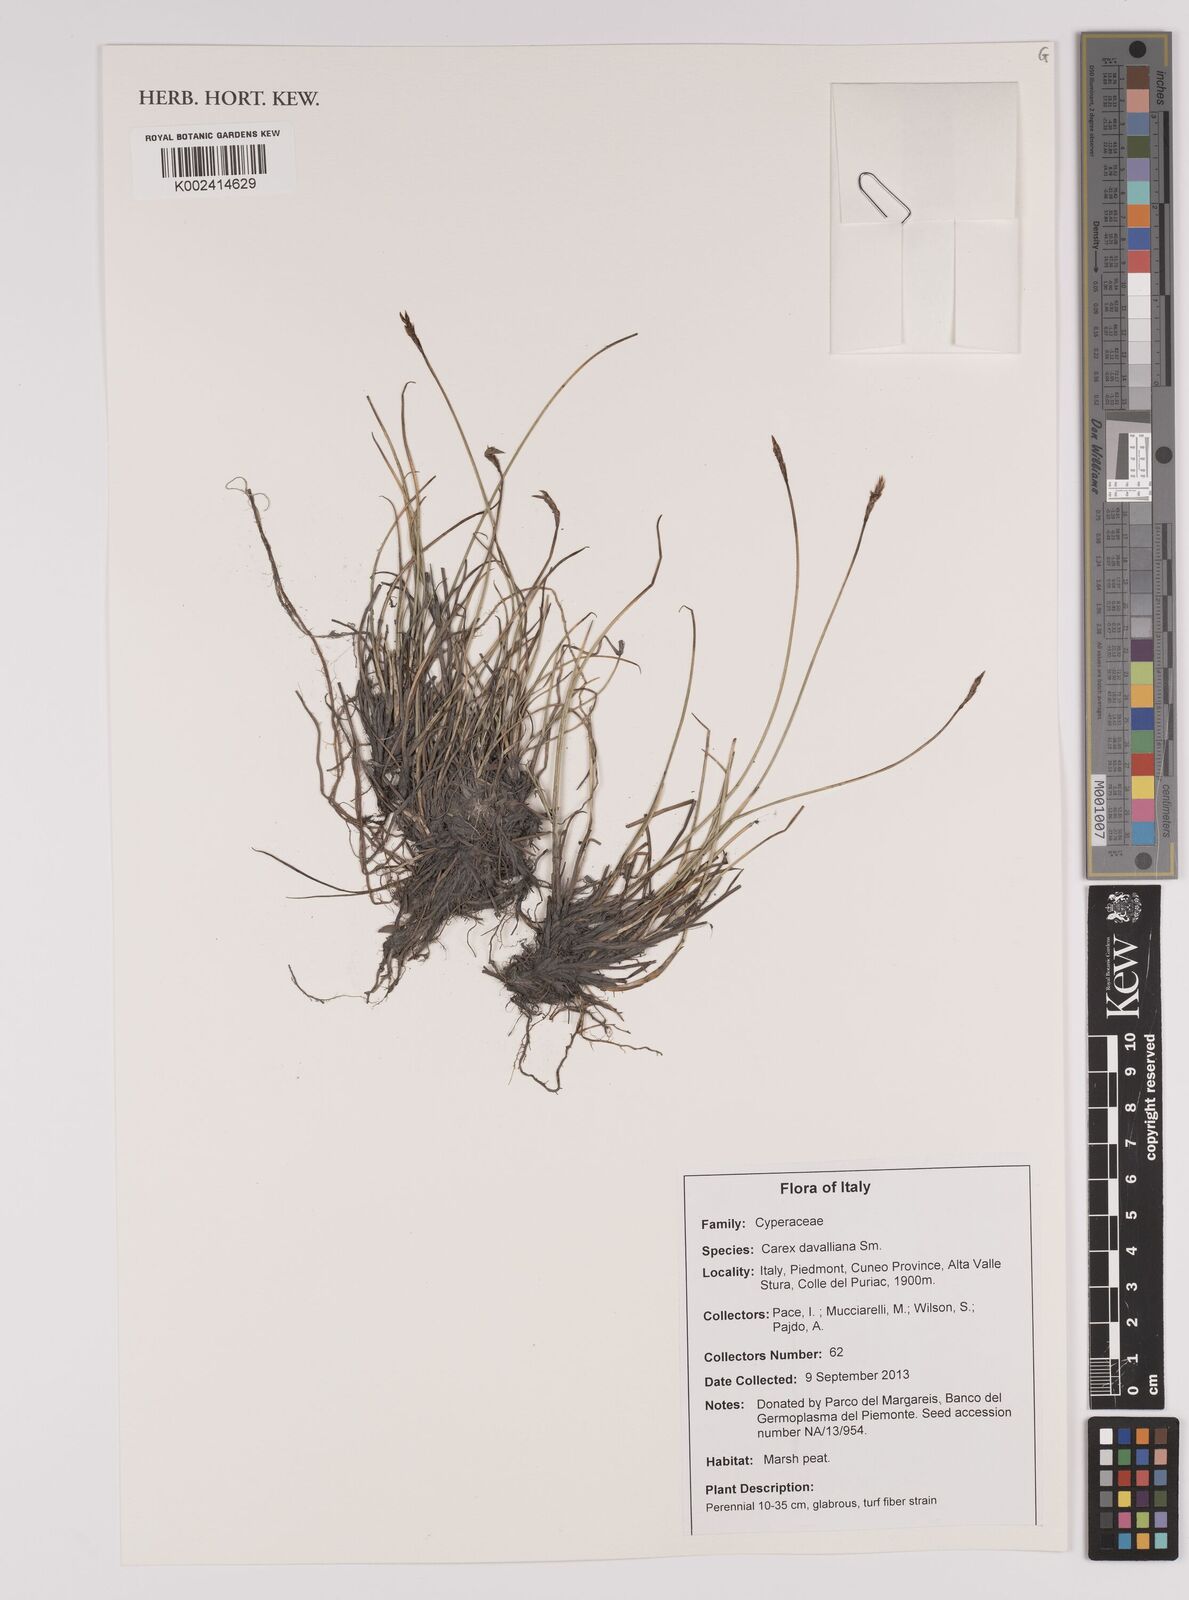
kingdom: Plantae
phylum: Tracheophyta
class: Liliopsida
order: Poales
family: Cyperaceae
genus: Carex
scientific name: Carex davalliana
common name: Davall's sedge
